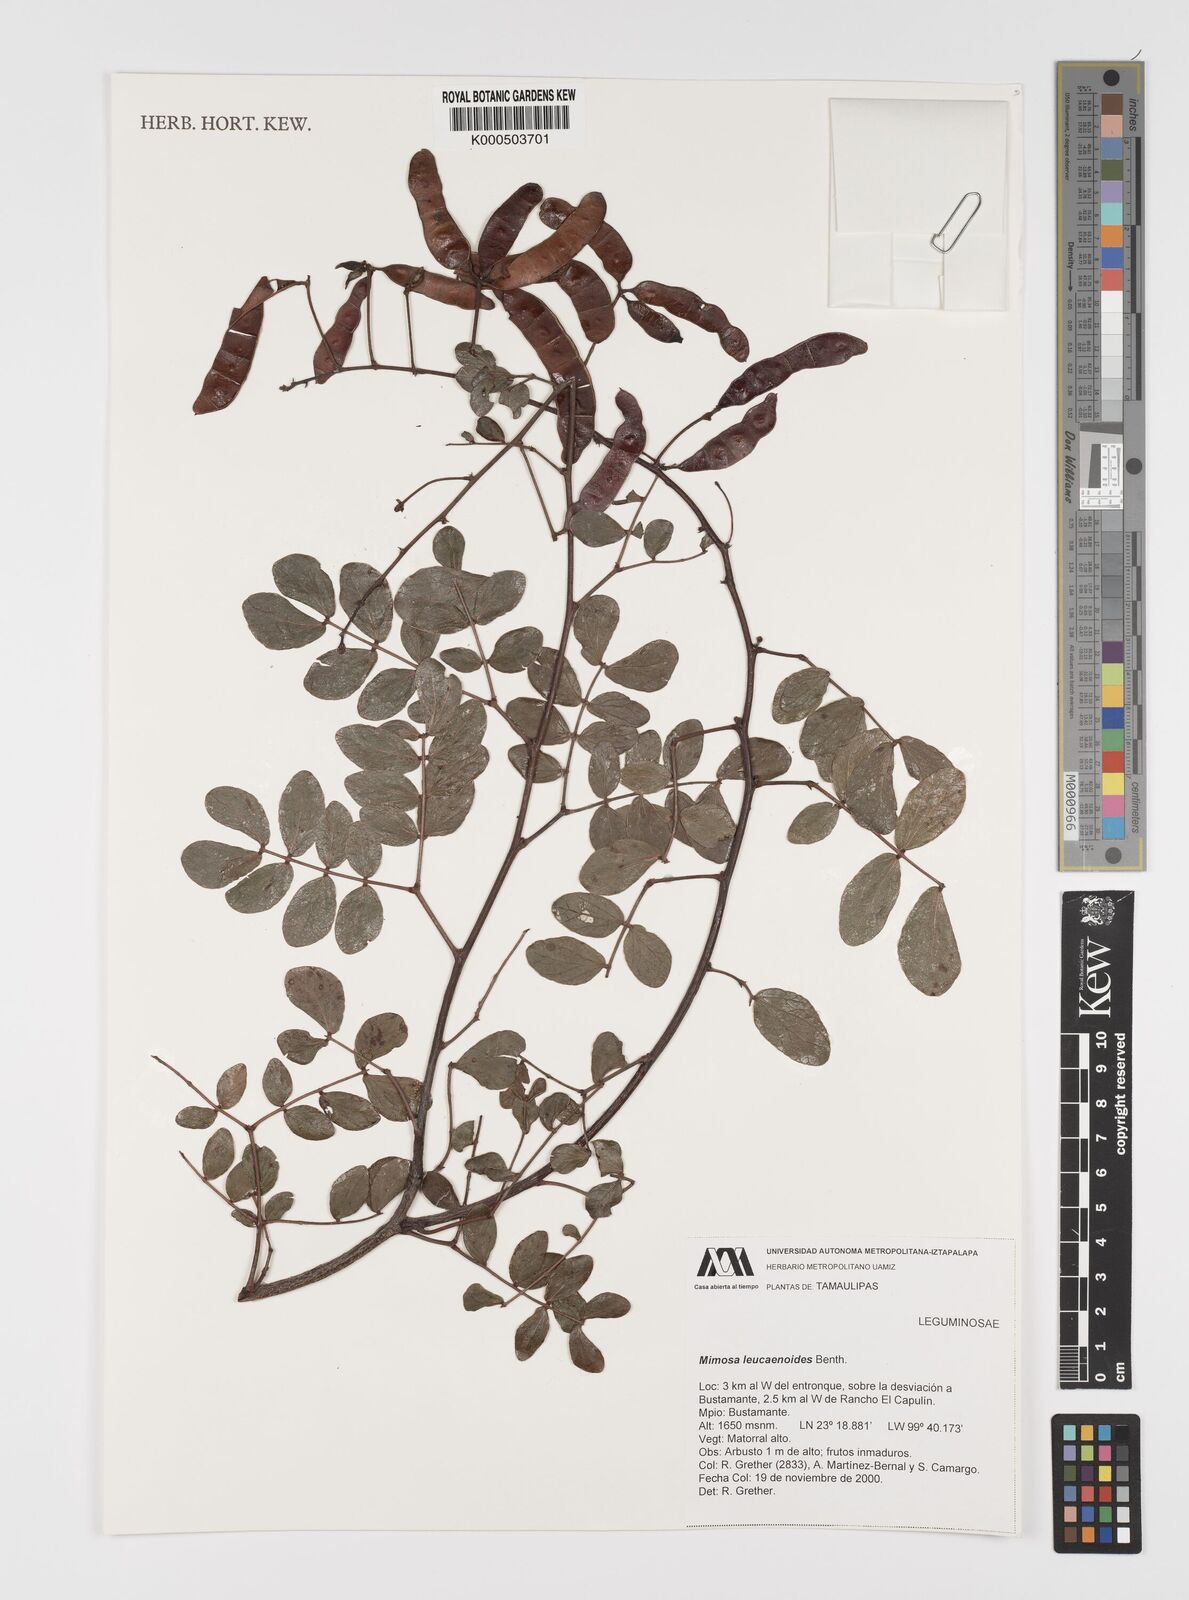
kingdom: Plantae
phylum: Tracheophyta
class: Magnoliopsida
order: Fabales
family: Fabaceae
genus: Mimosa
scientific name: Mimosa leucaenoides
